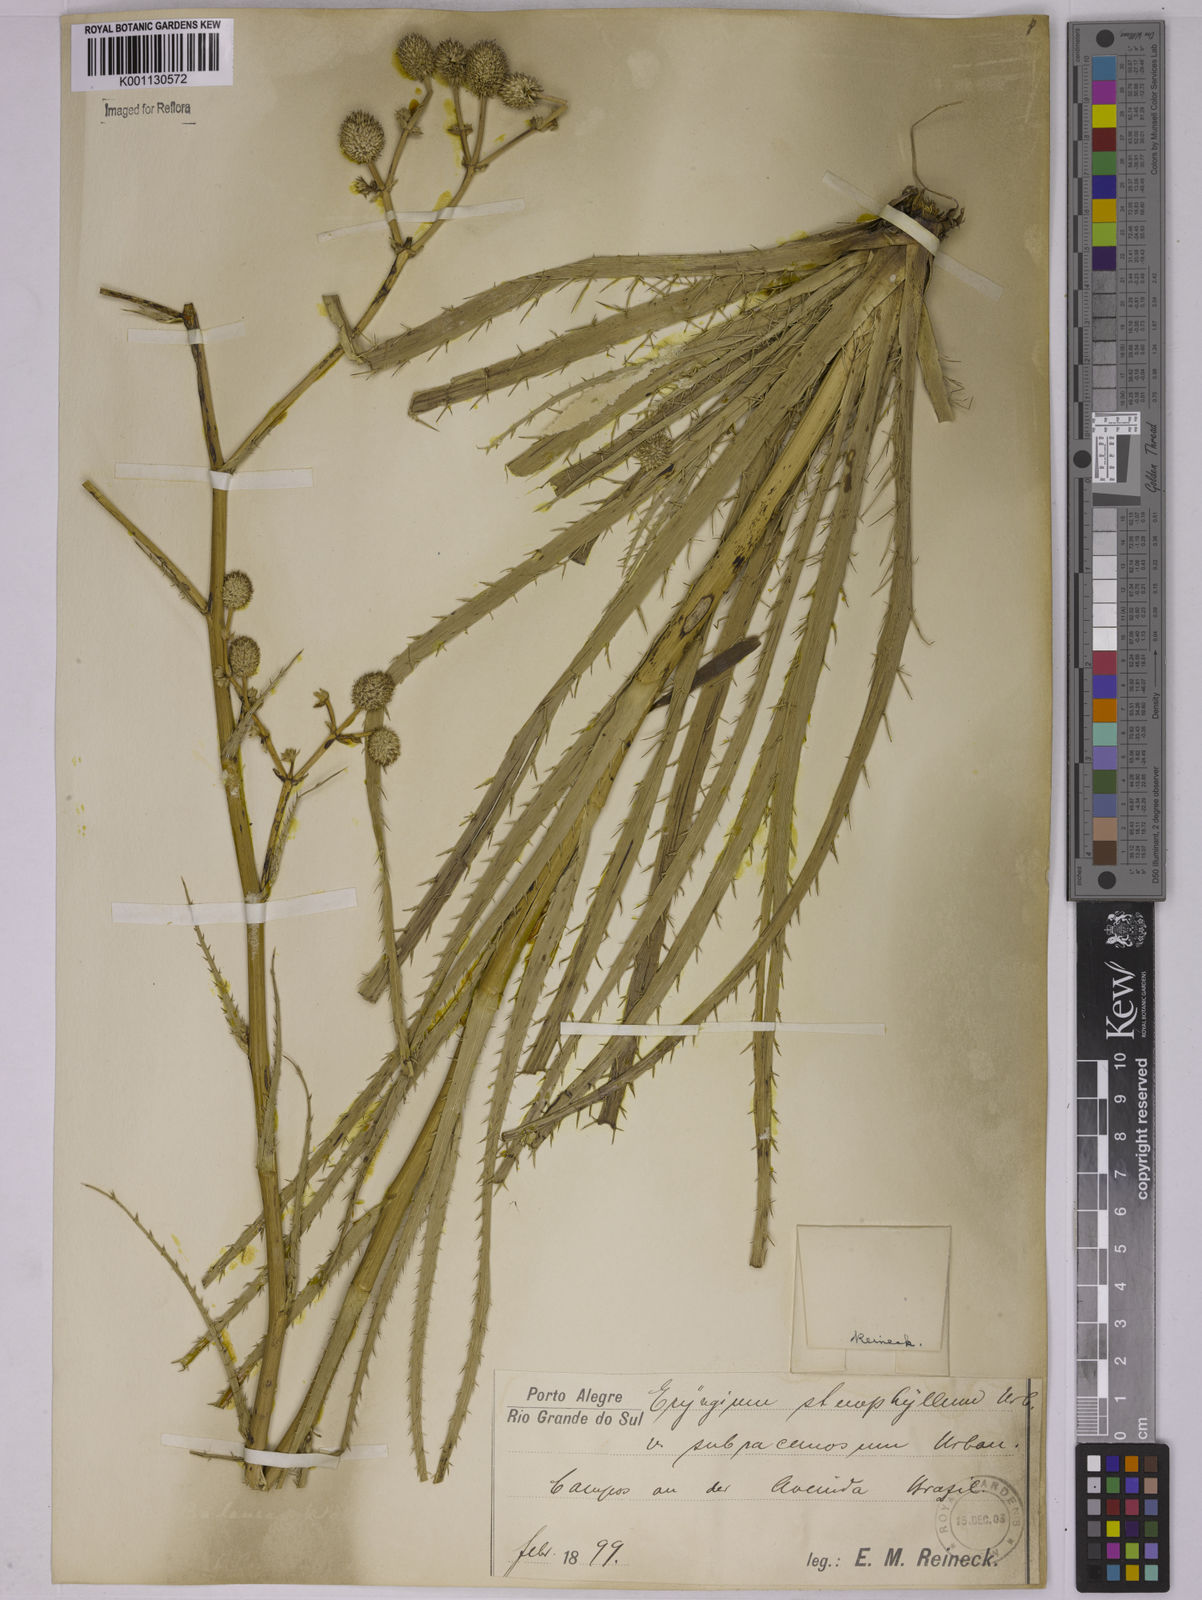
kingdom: Plantae
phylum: Tracheophyta
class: Magnoliopsida
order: Apiales
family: Apiaceae
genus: Eryngium
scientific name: Eryngium stenophyllum
